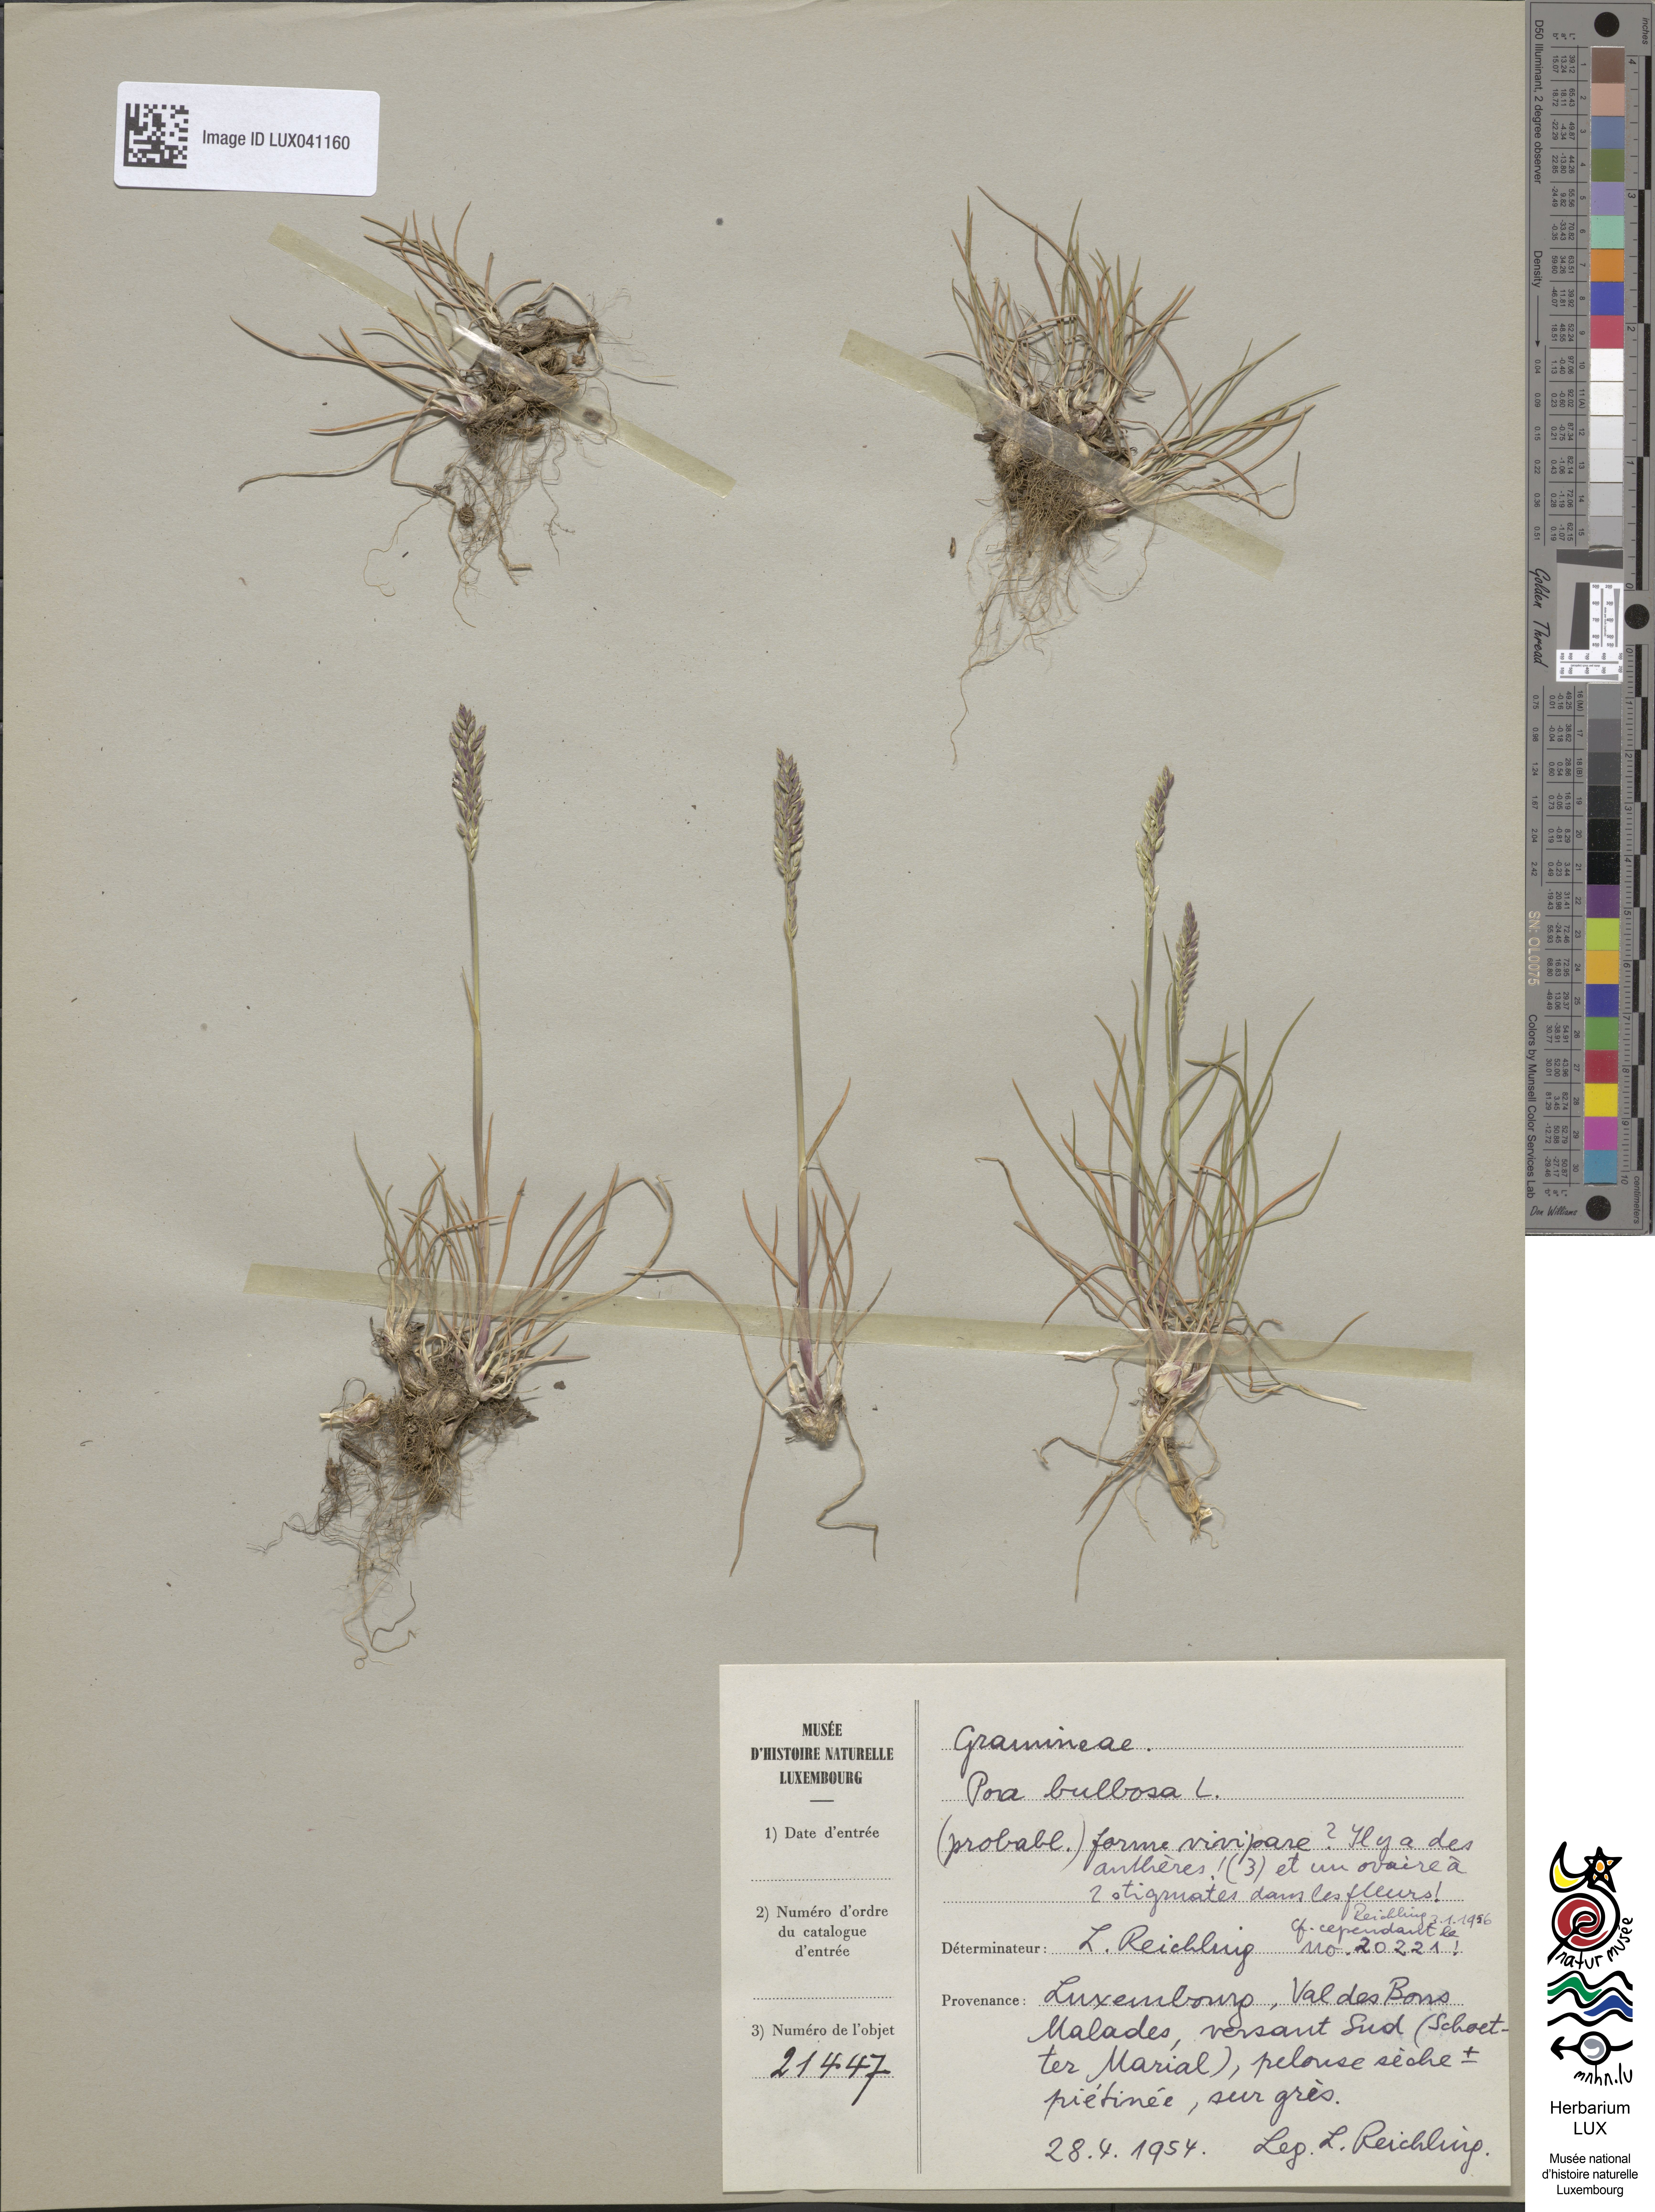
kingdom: Plantae
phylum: Tracheophyta
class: Liliopsida
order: Poales
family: Poaceae
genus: Poa
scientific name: Poa bulbosa
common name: Bulbous bluegrass
